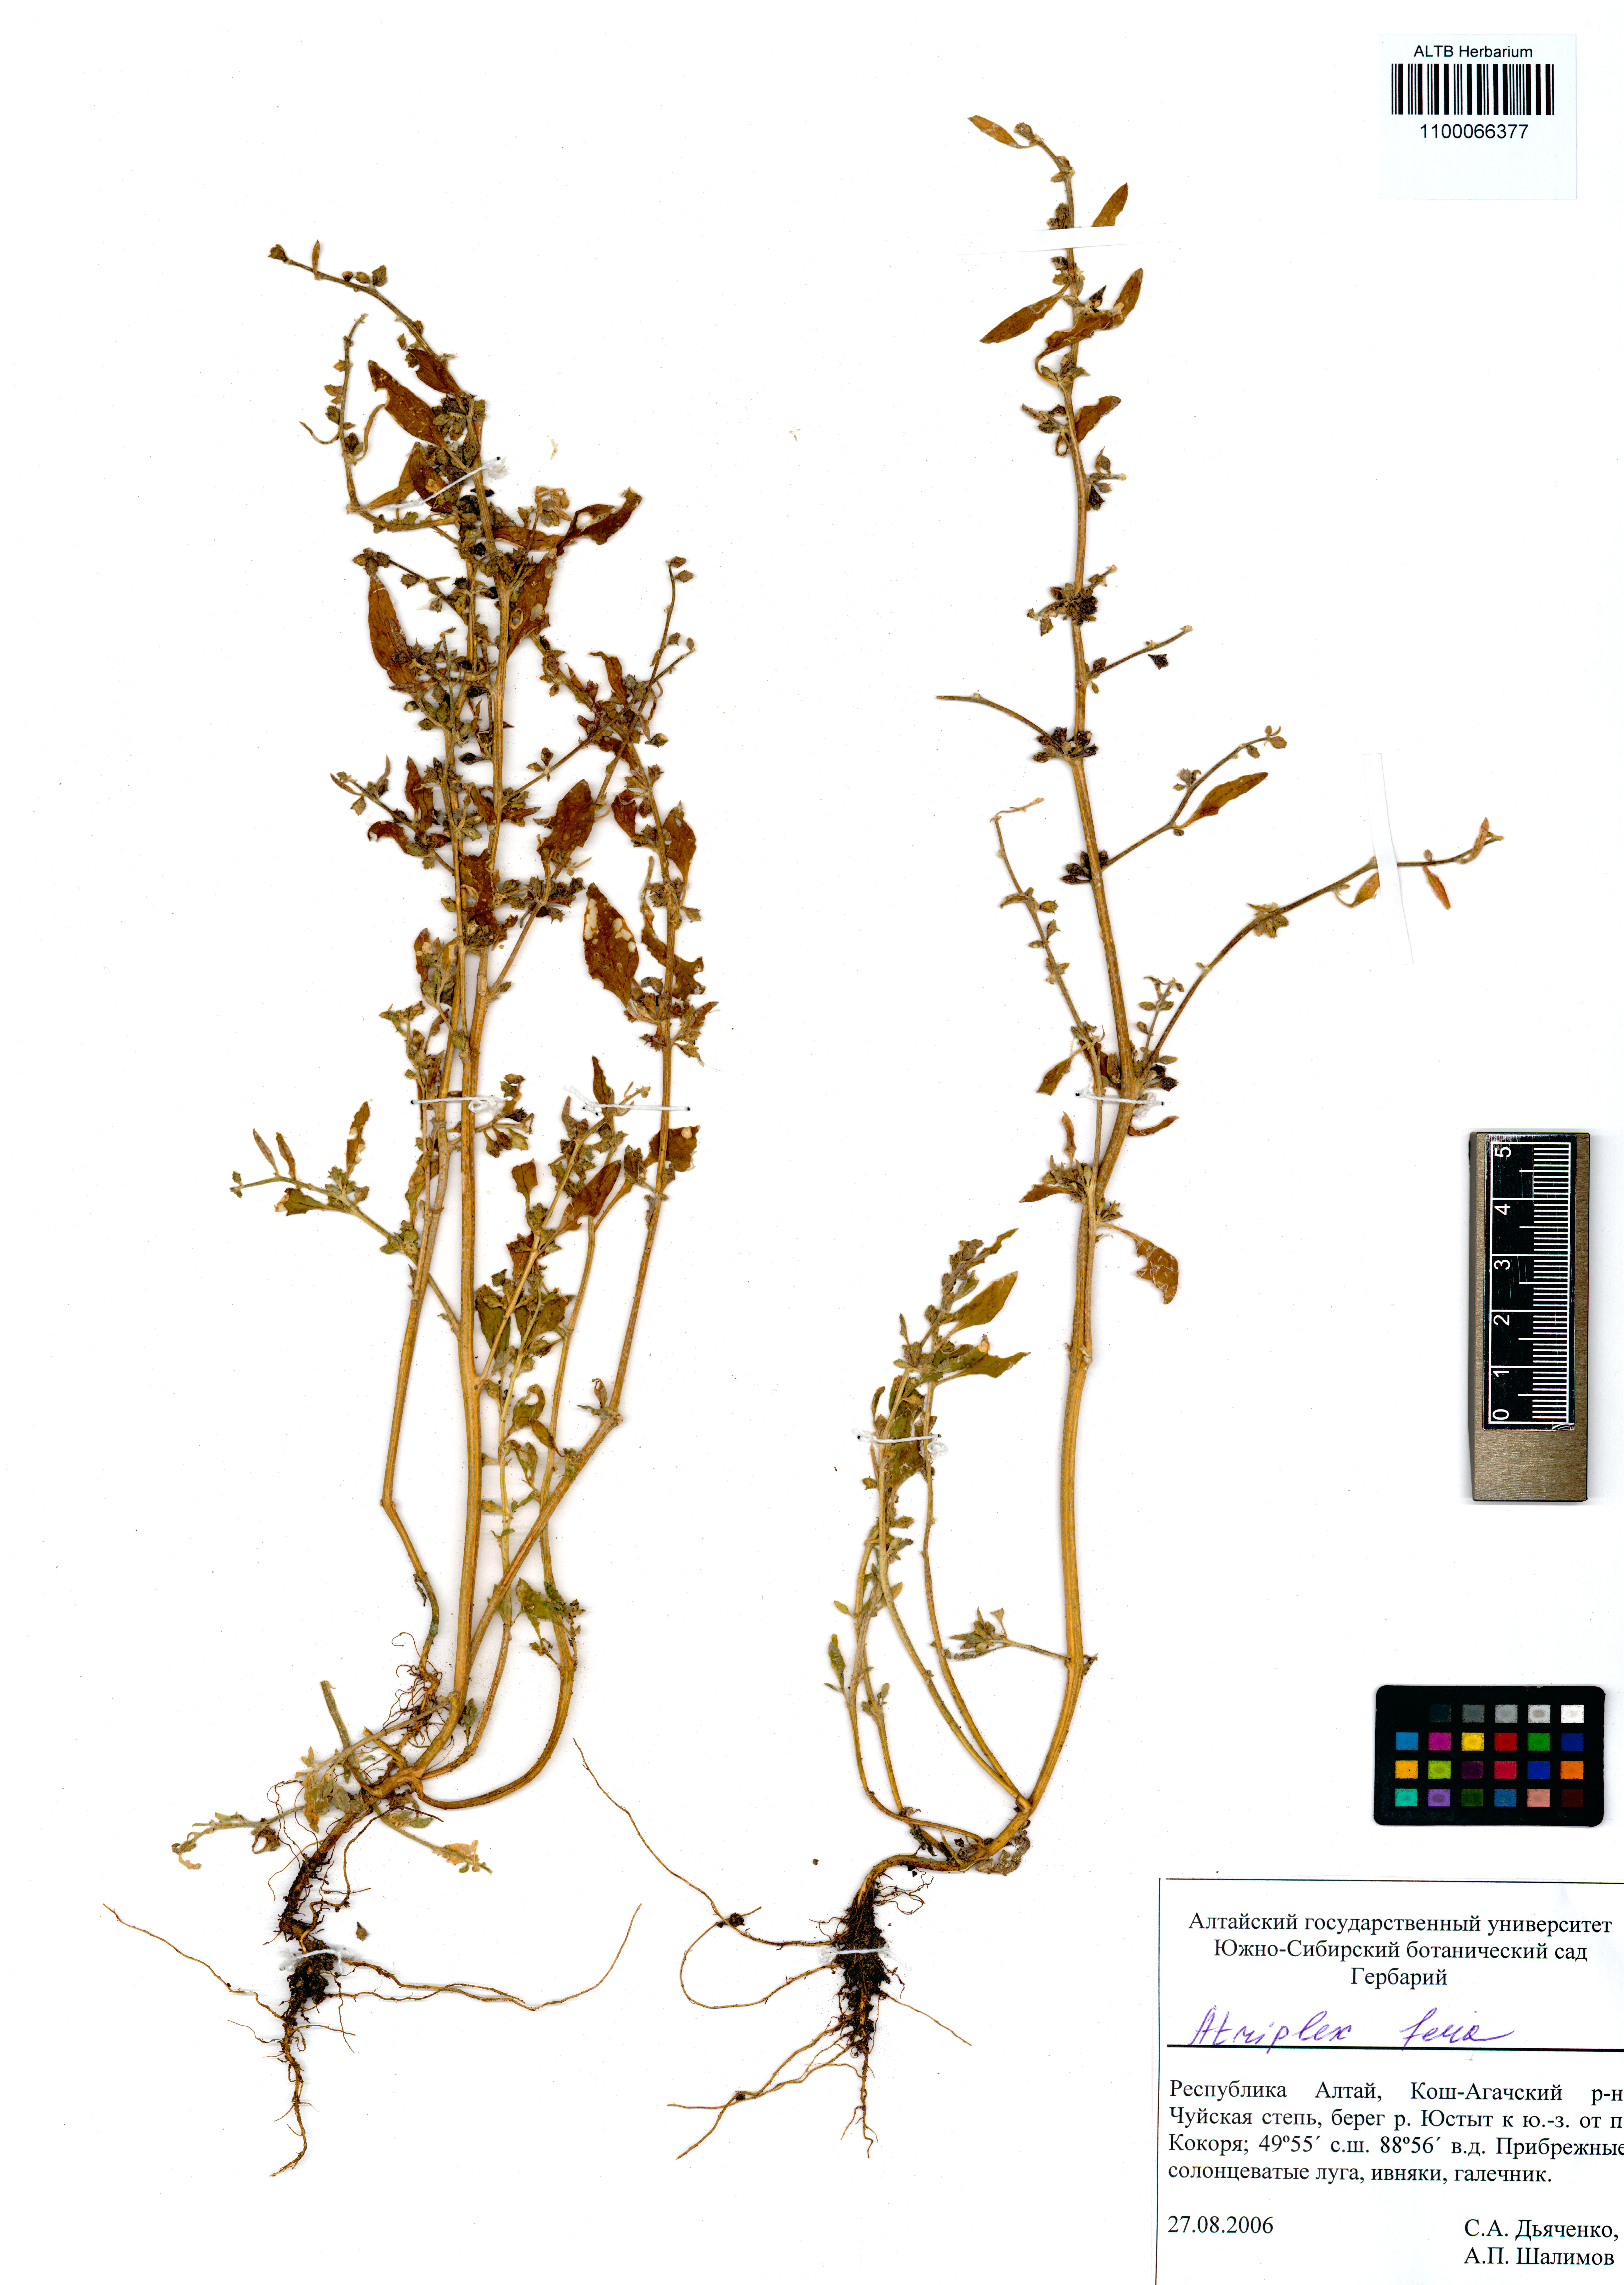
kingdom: Plantae
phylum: Tracheophyta
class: Magnoliopsida
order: Caryophyllales
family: Amaranthaceae
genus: Atriplex
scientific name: Atriplex fera
